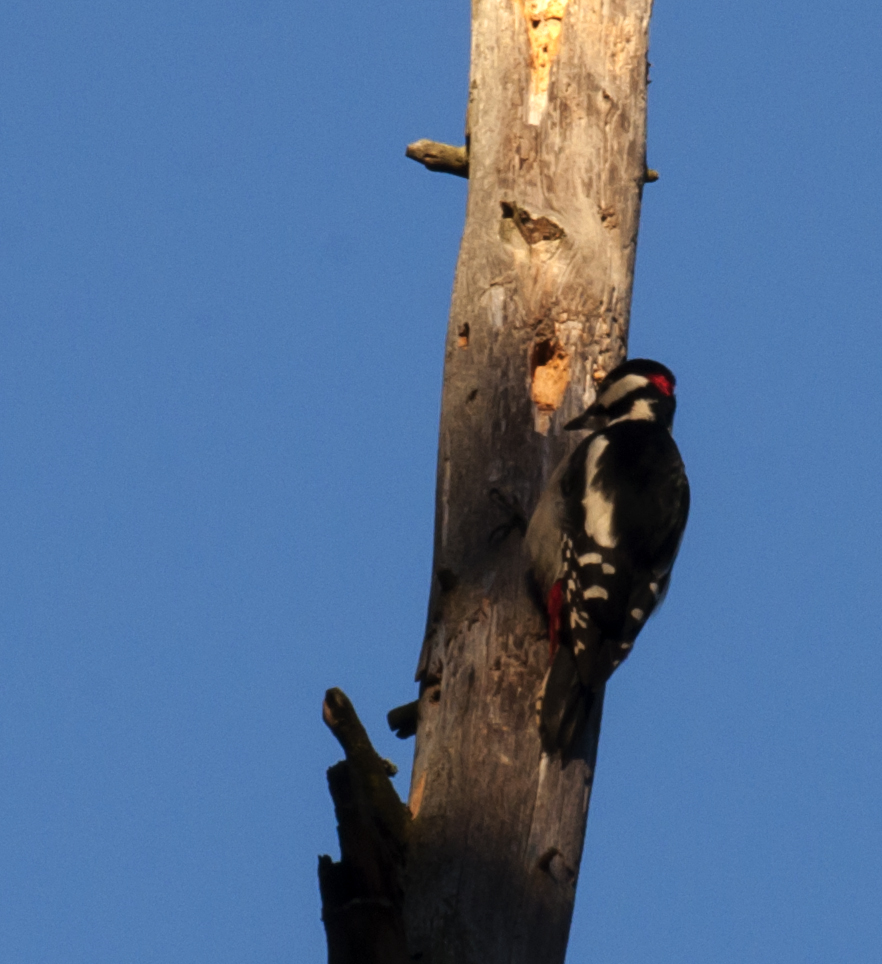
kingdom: Animalia
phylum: Chordata
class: Aves
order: Piciformes
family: Picidae
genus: Dendrocopos
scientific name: Dendrocopos major
